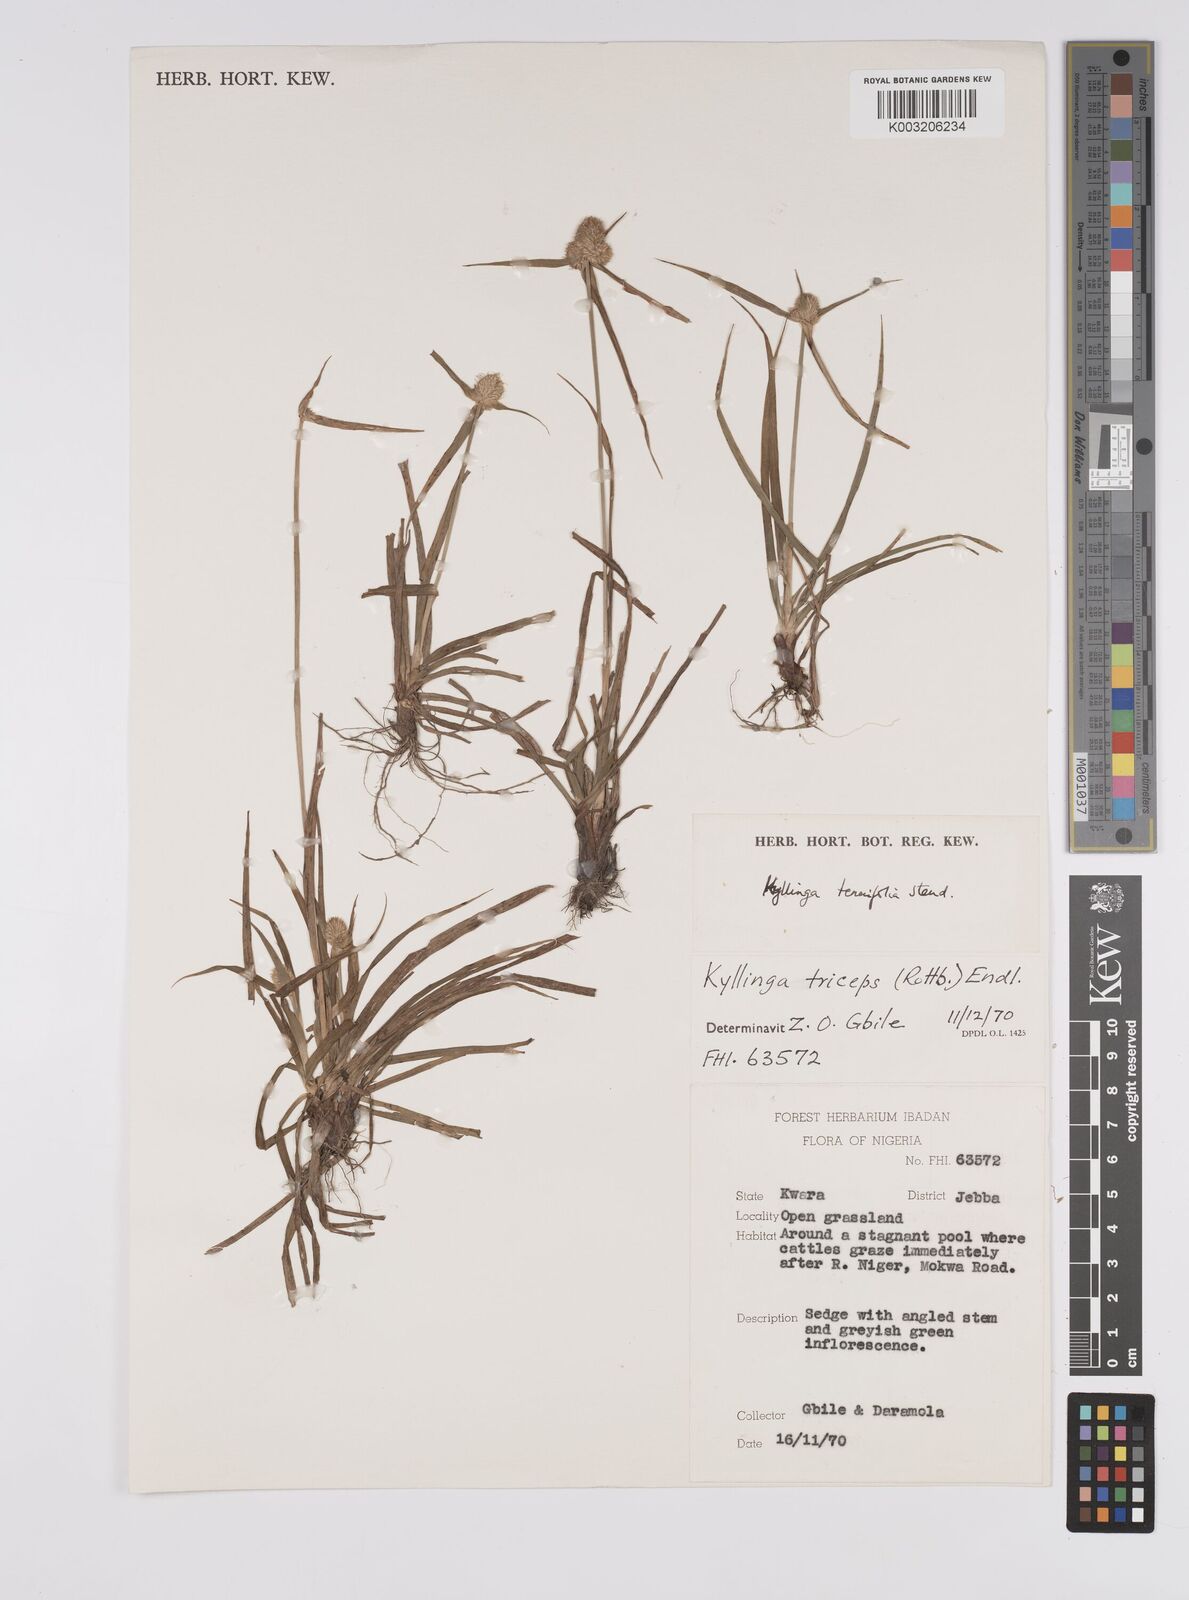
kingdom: Plantae
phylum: Tracheophyta
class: Liliopsida
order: Poales
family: Cyperaceae
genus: Cyperus
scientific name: Cyperus
